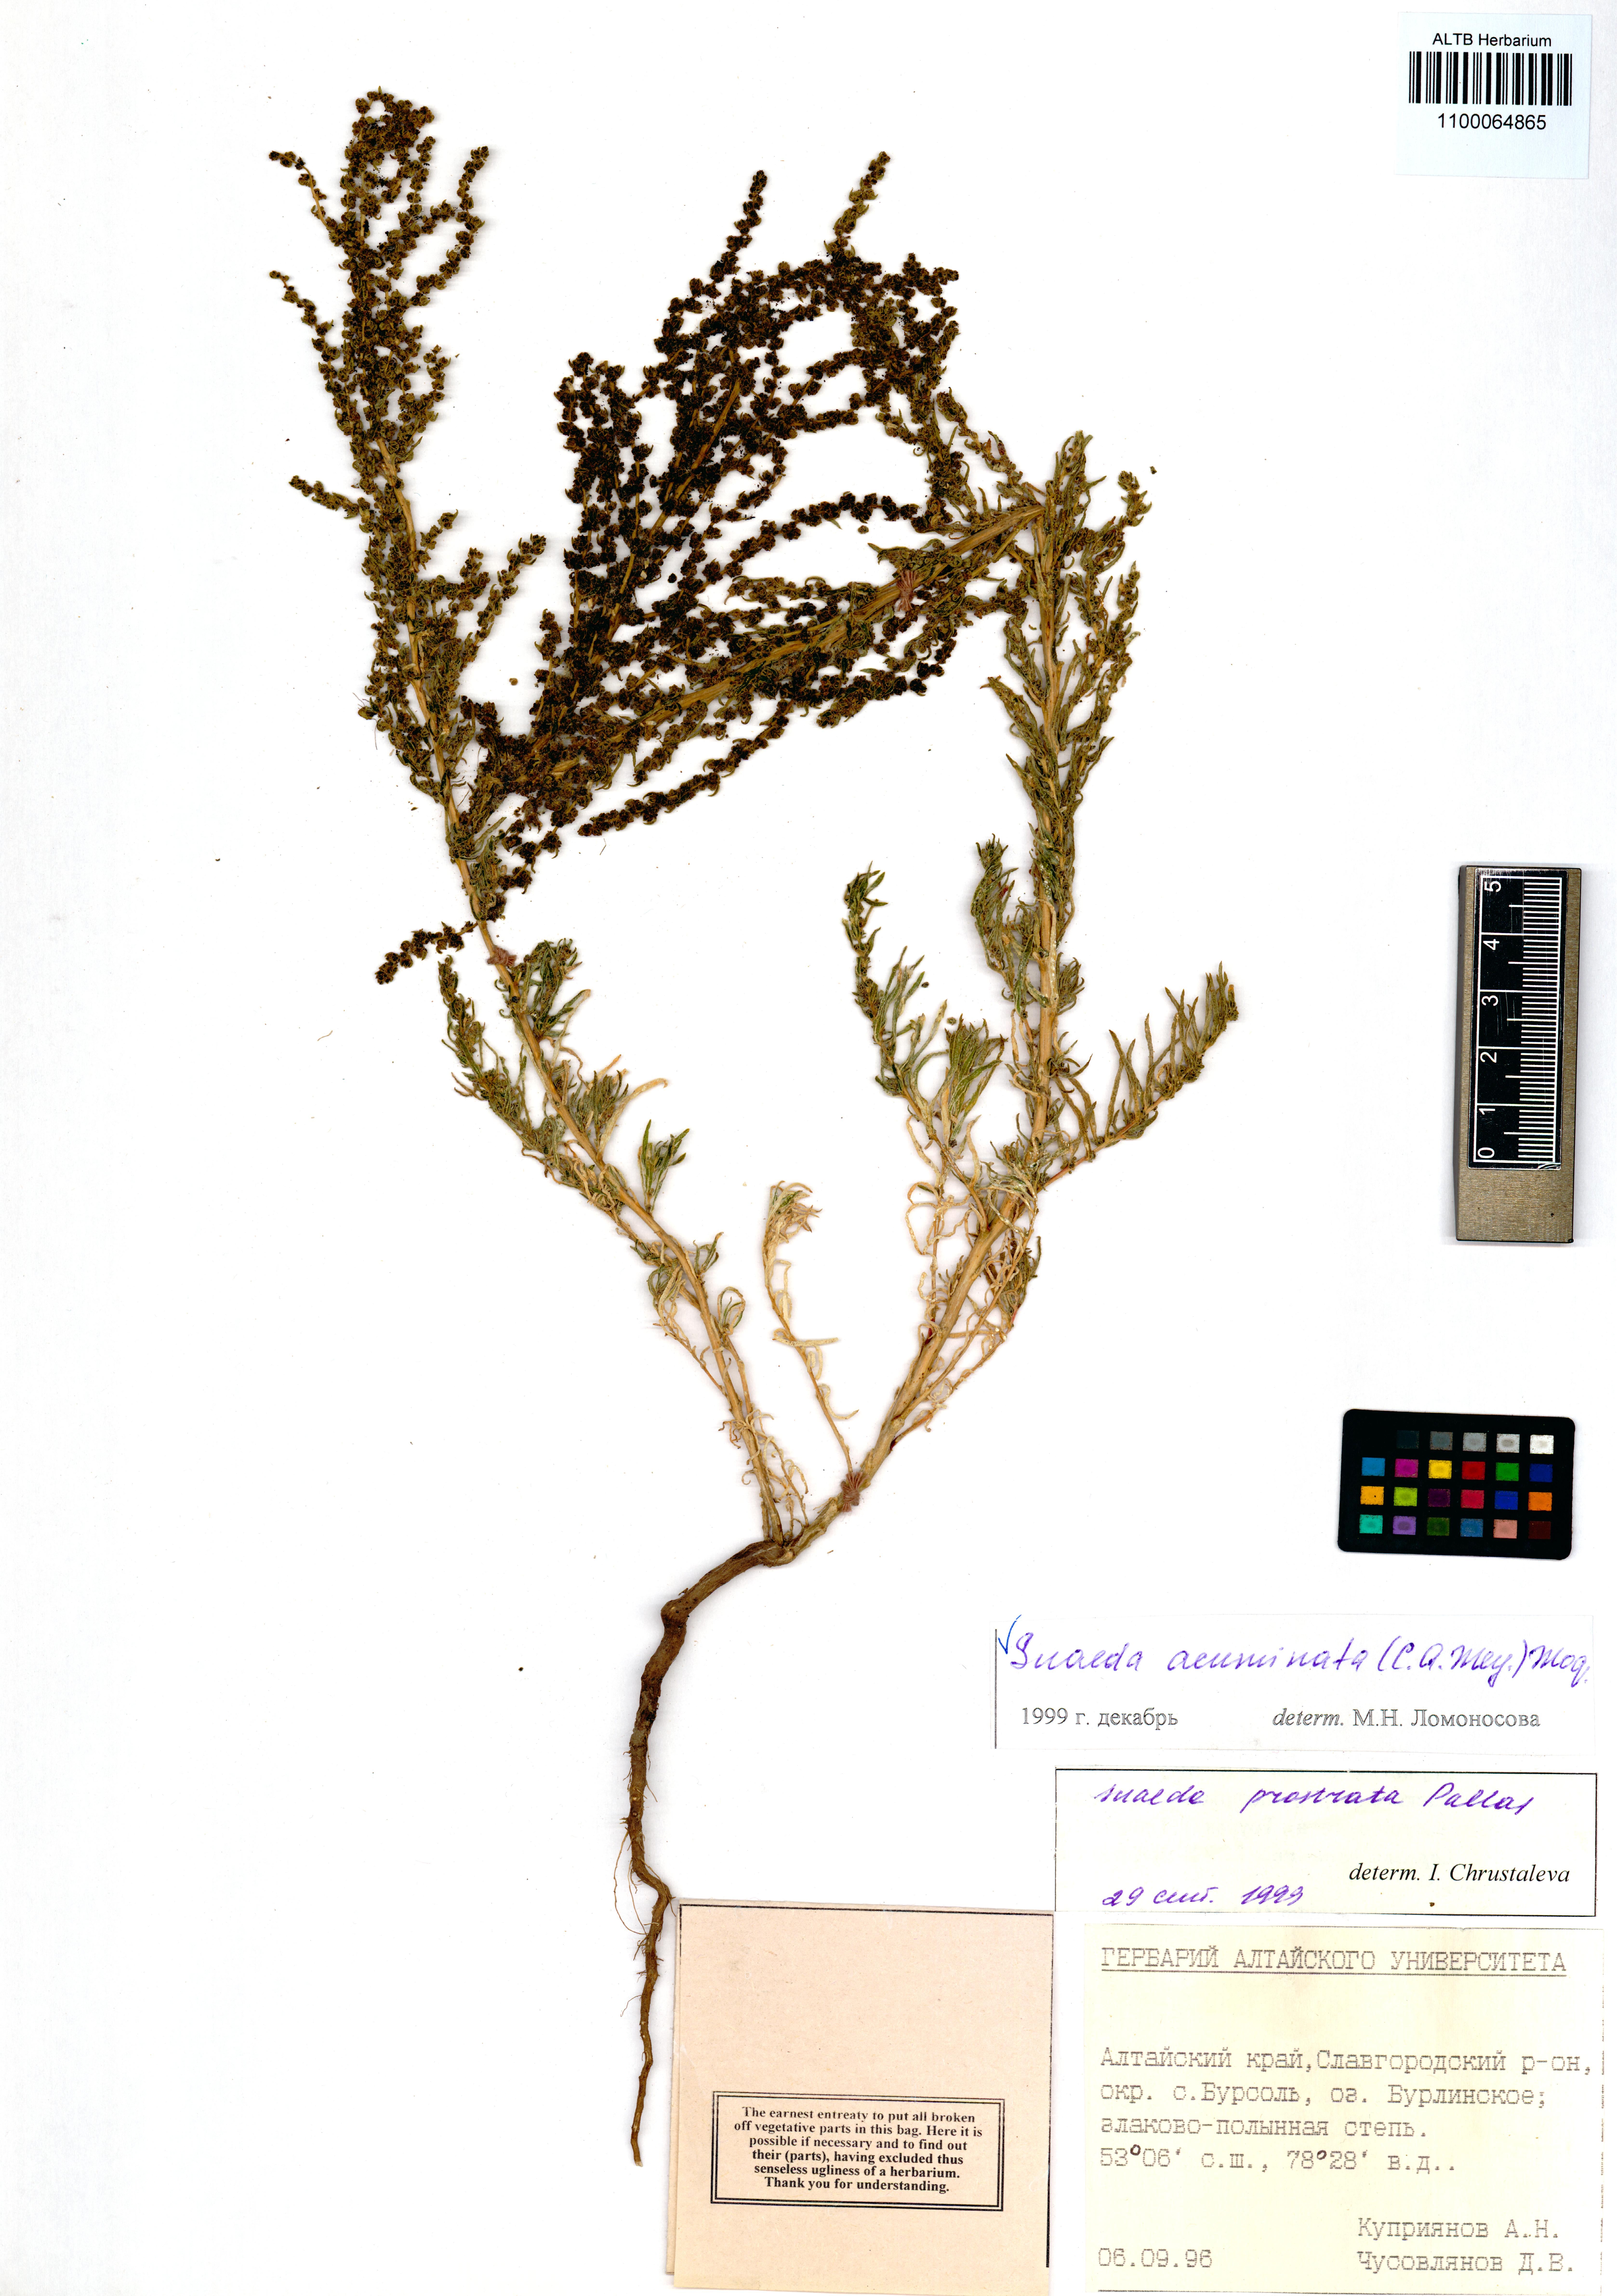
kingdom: Plantae
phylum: Tracheophyta
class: Magnoliopsida
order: Caryophyllales
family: Amaranthaceae
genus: Suaeda
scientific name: Suaeda acuminata
